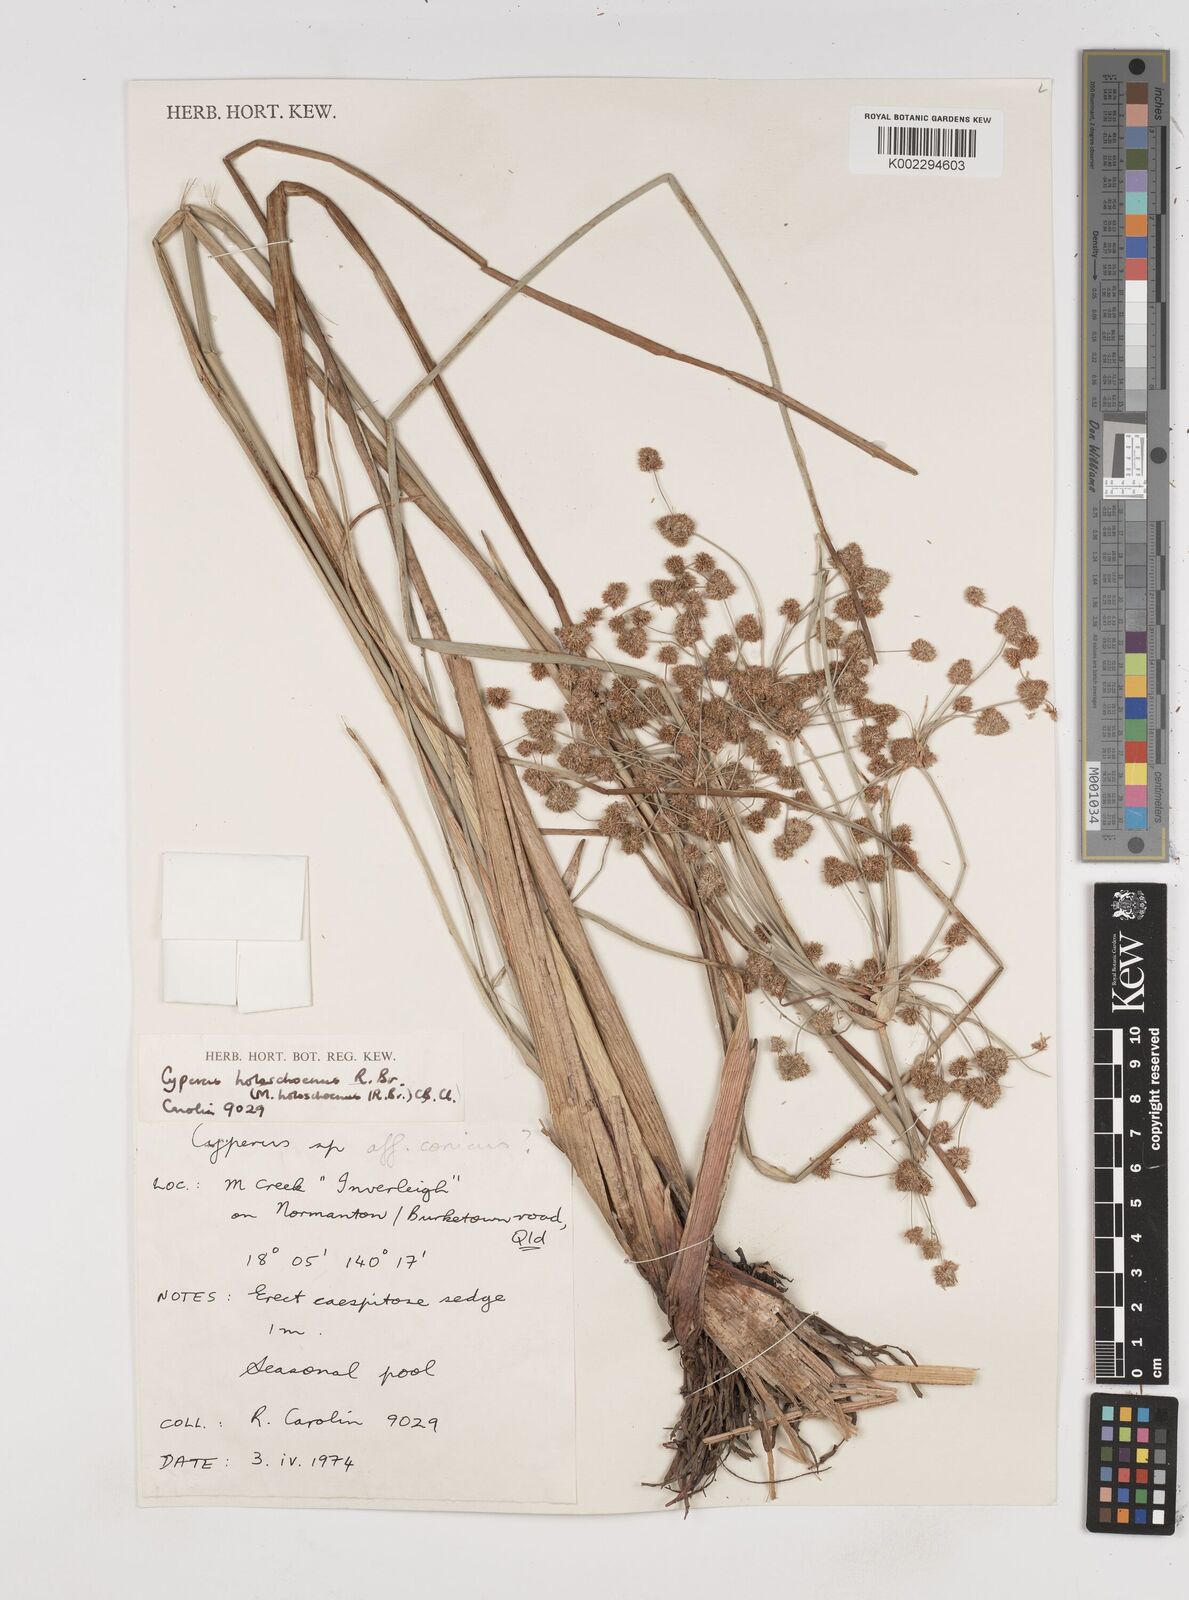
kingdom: Plantae
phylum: Tracheophyta
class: Liliopsida
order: Poales
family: Cyperaceae
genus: Cyperus
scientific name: Cyperus holoschoenus
